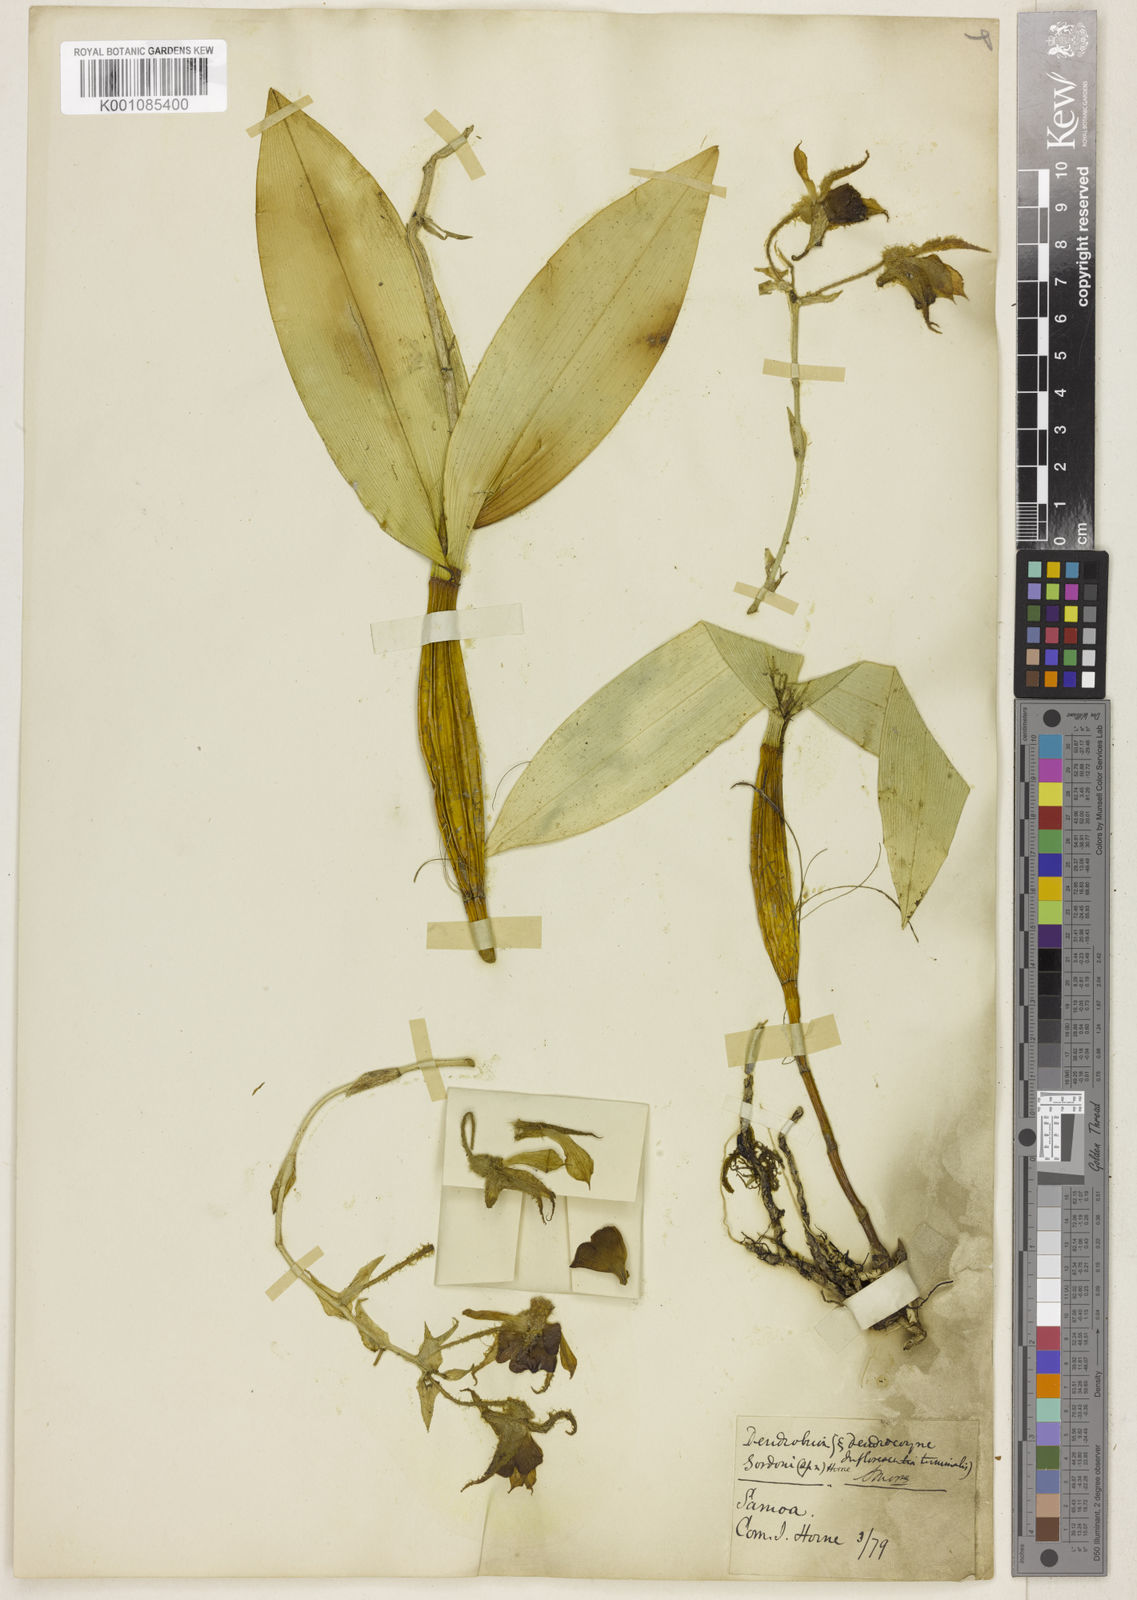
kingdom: Plantae
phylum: Tracheophyta
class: Liliopsida
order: Asparagales
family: Orchidaceae
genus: Dendrobium
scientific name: Dendrobium mooreanum
